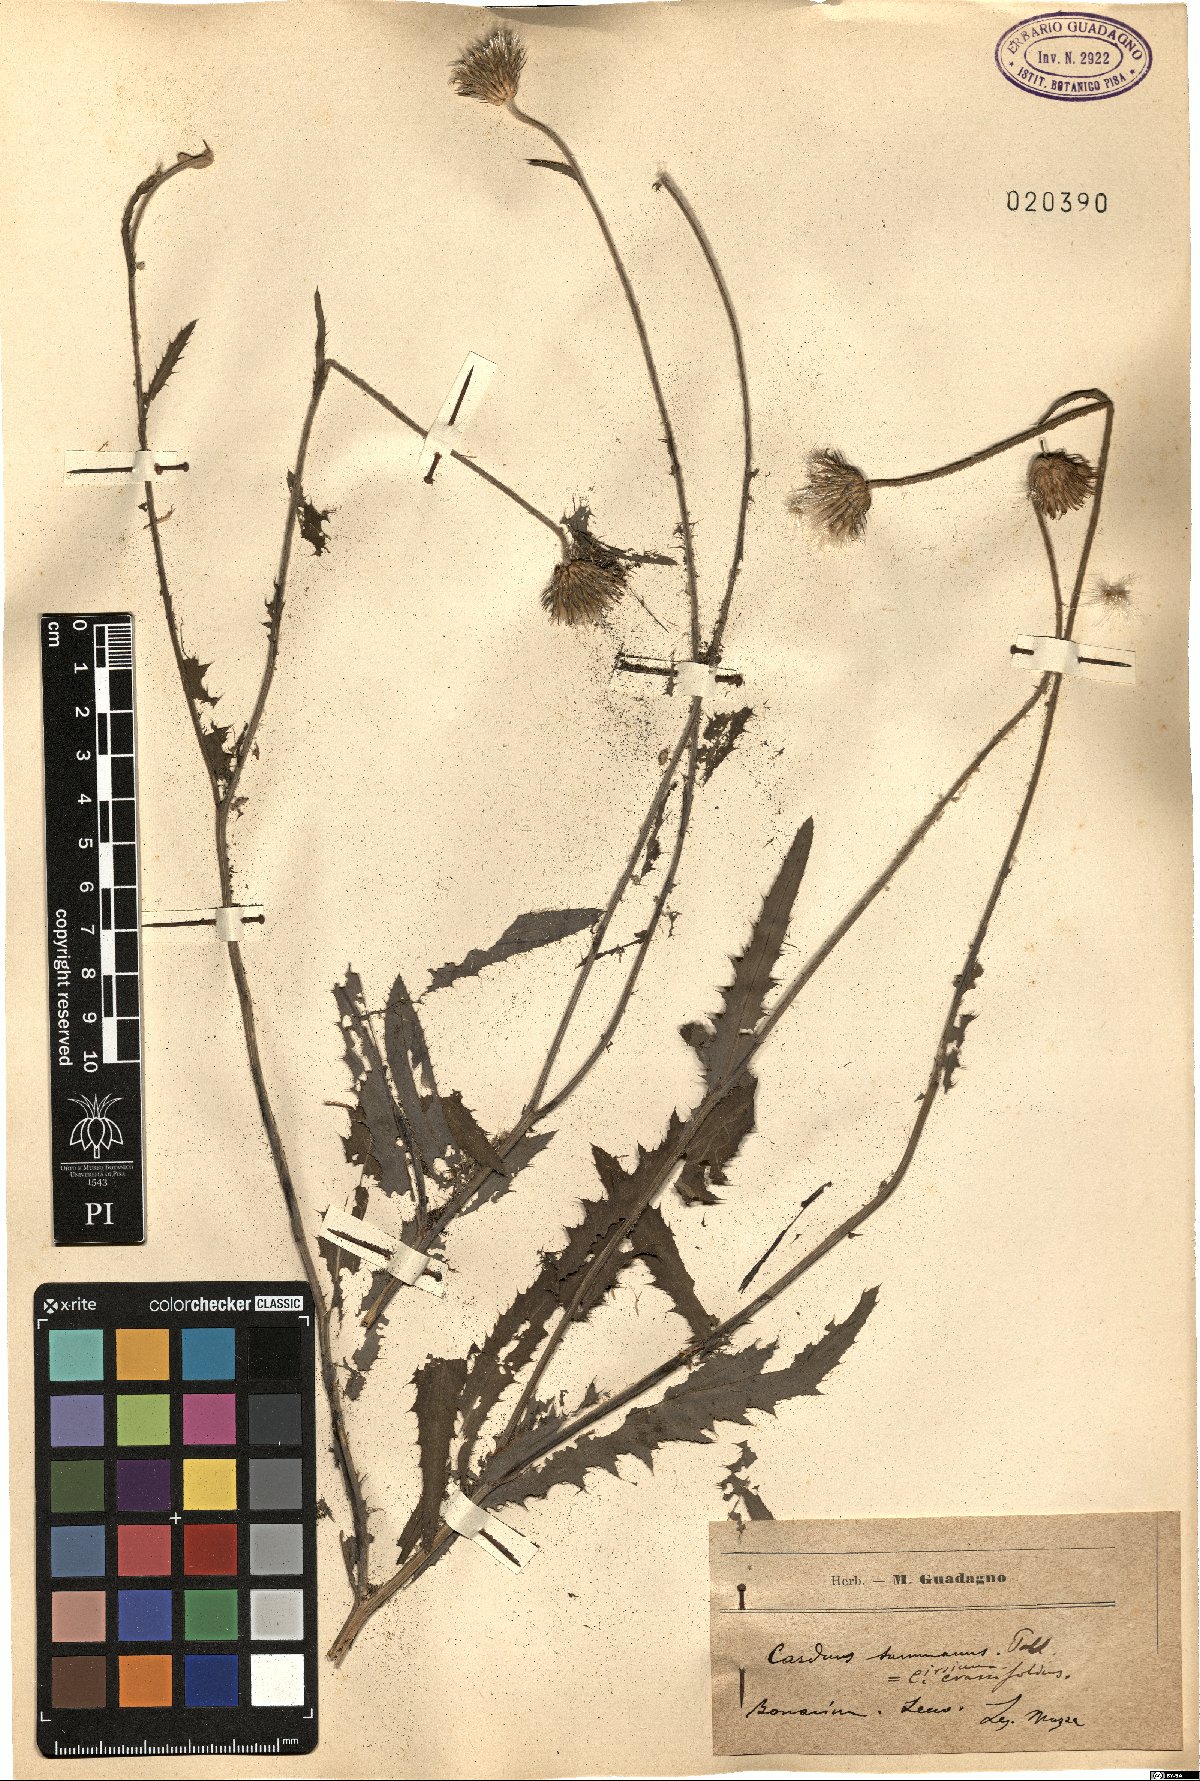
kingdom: Plantae
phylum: Tracheophyta
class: Magnoliopsida
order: Asterales
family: Asteraceae
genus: Carduus
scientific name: Carduus defloratus
